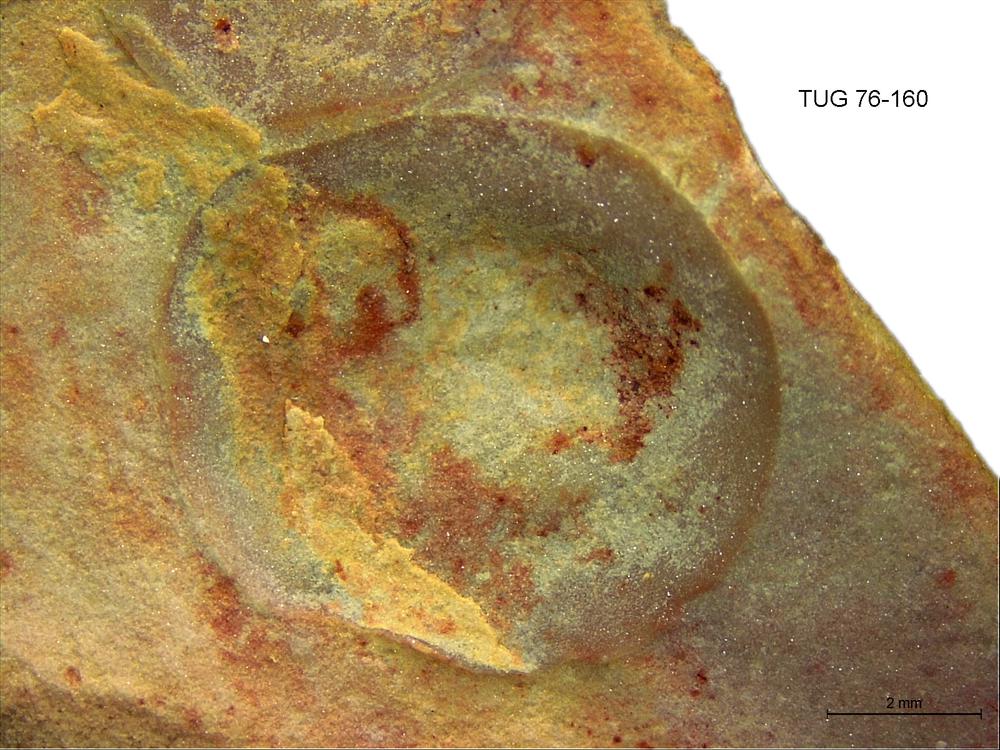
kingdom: Animalia
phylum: Brachiopoda
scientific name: Brachiopoda
